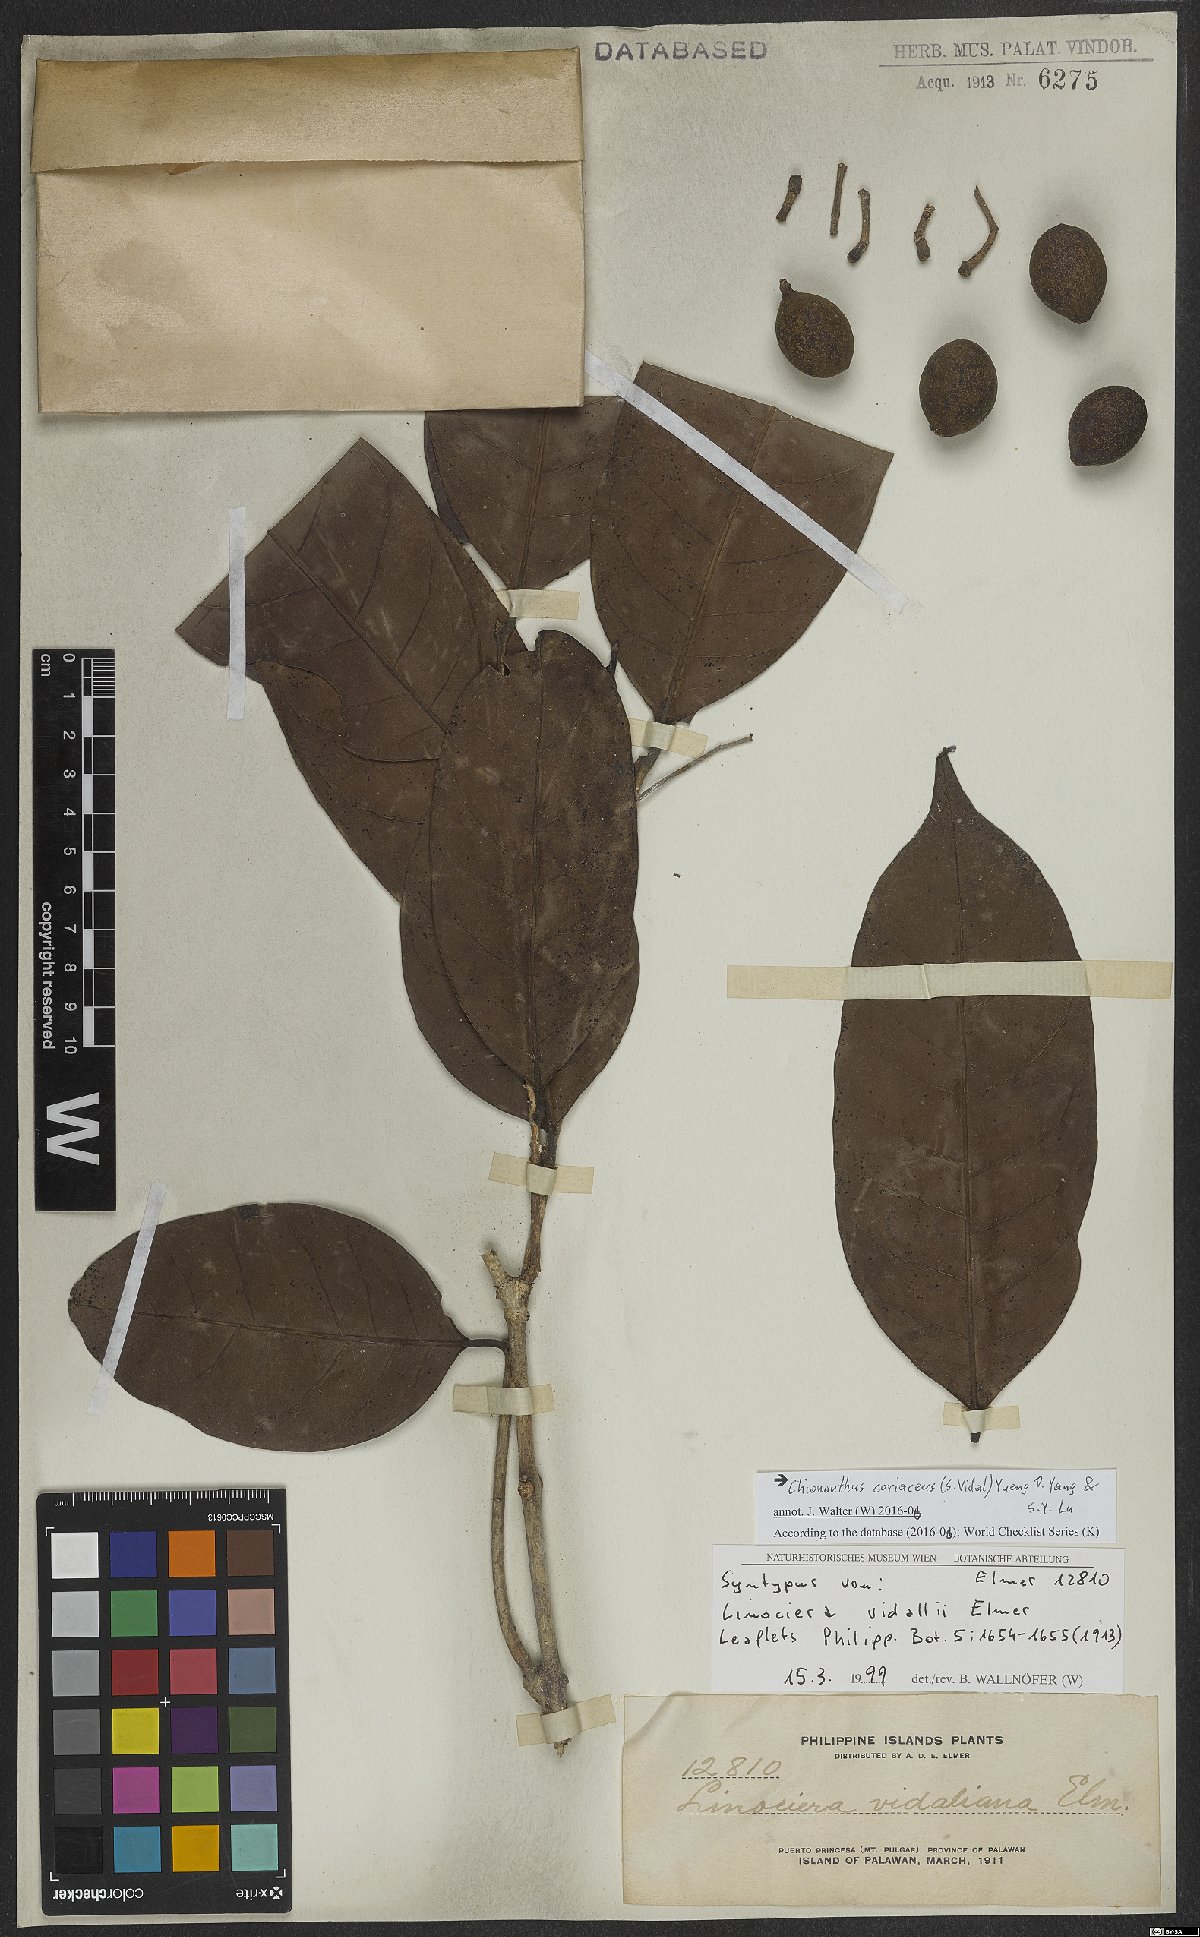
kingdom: Plantae
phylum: Tracheophyta
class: Magnoliopsida
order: Lamiales
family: Oleaceae
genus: Chionanthus
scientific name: Chionanthus coriaceus
